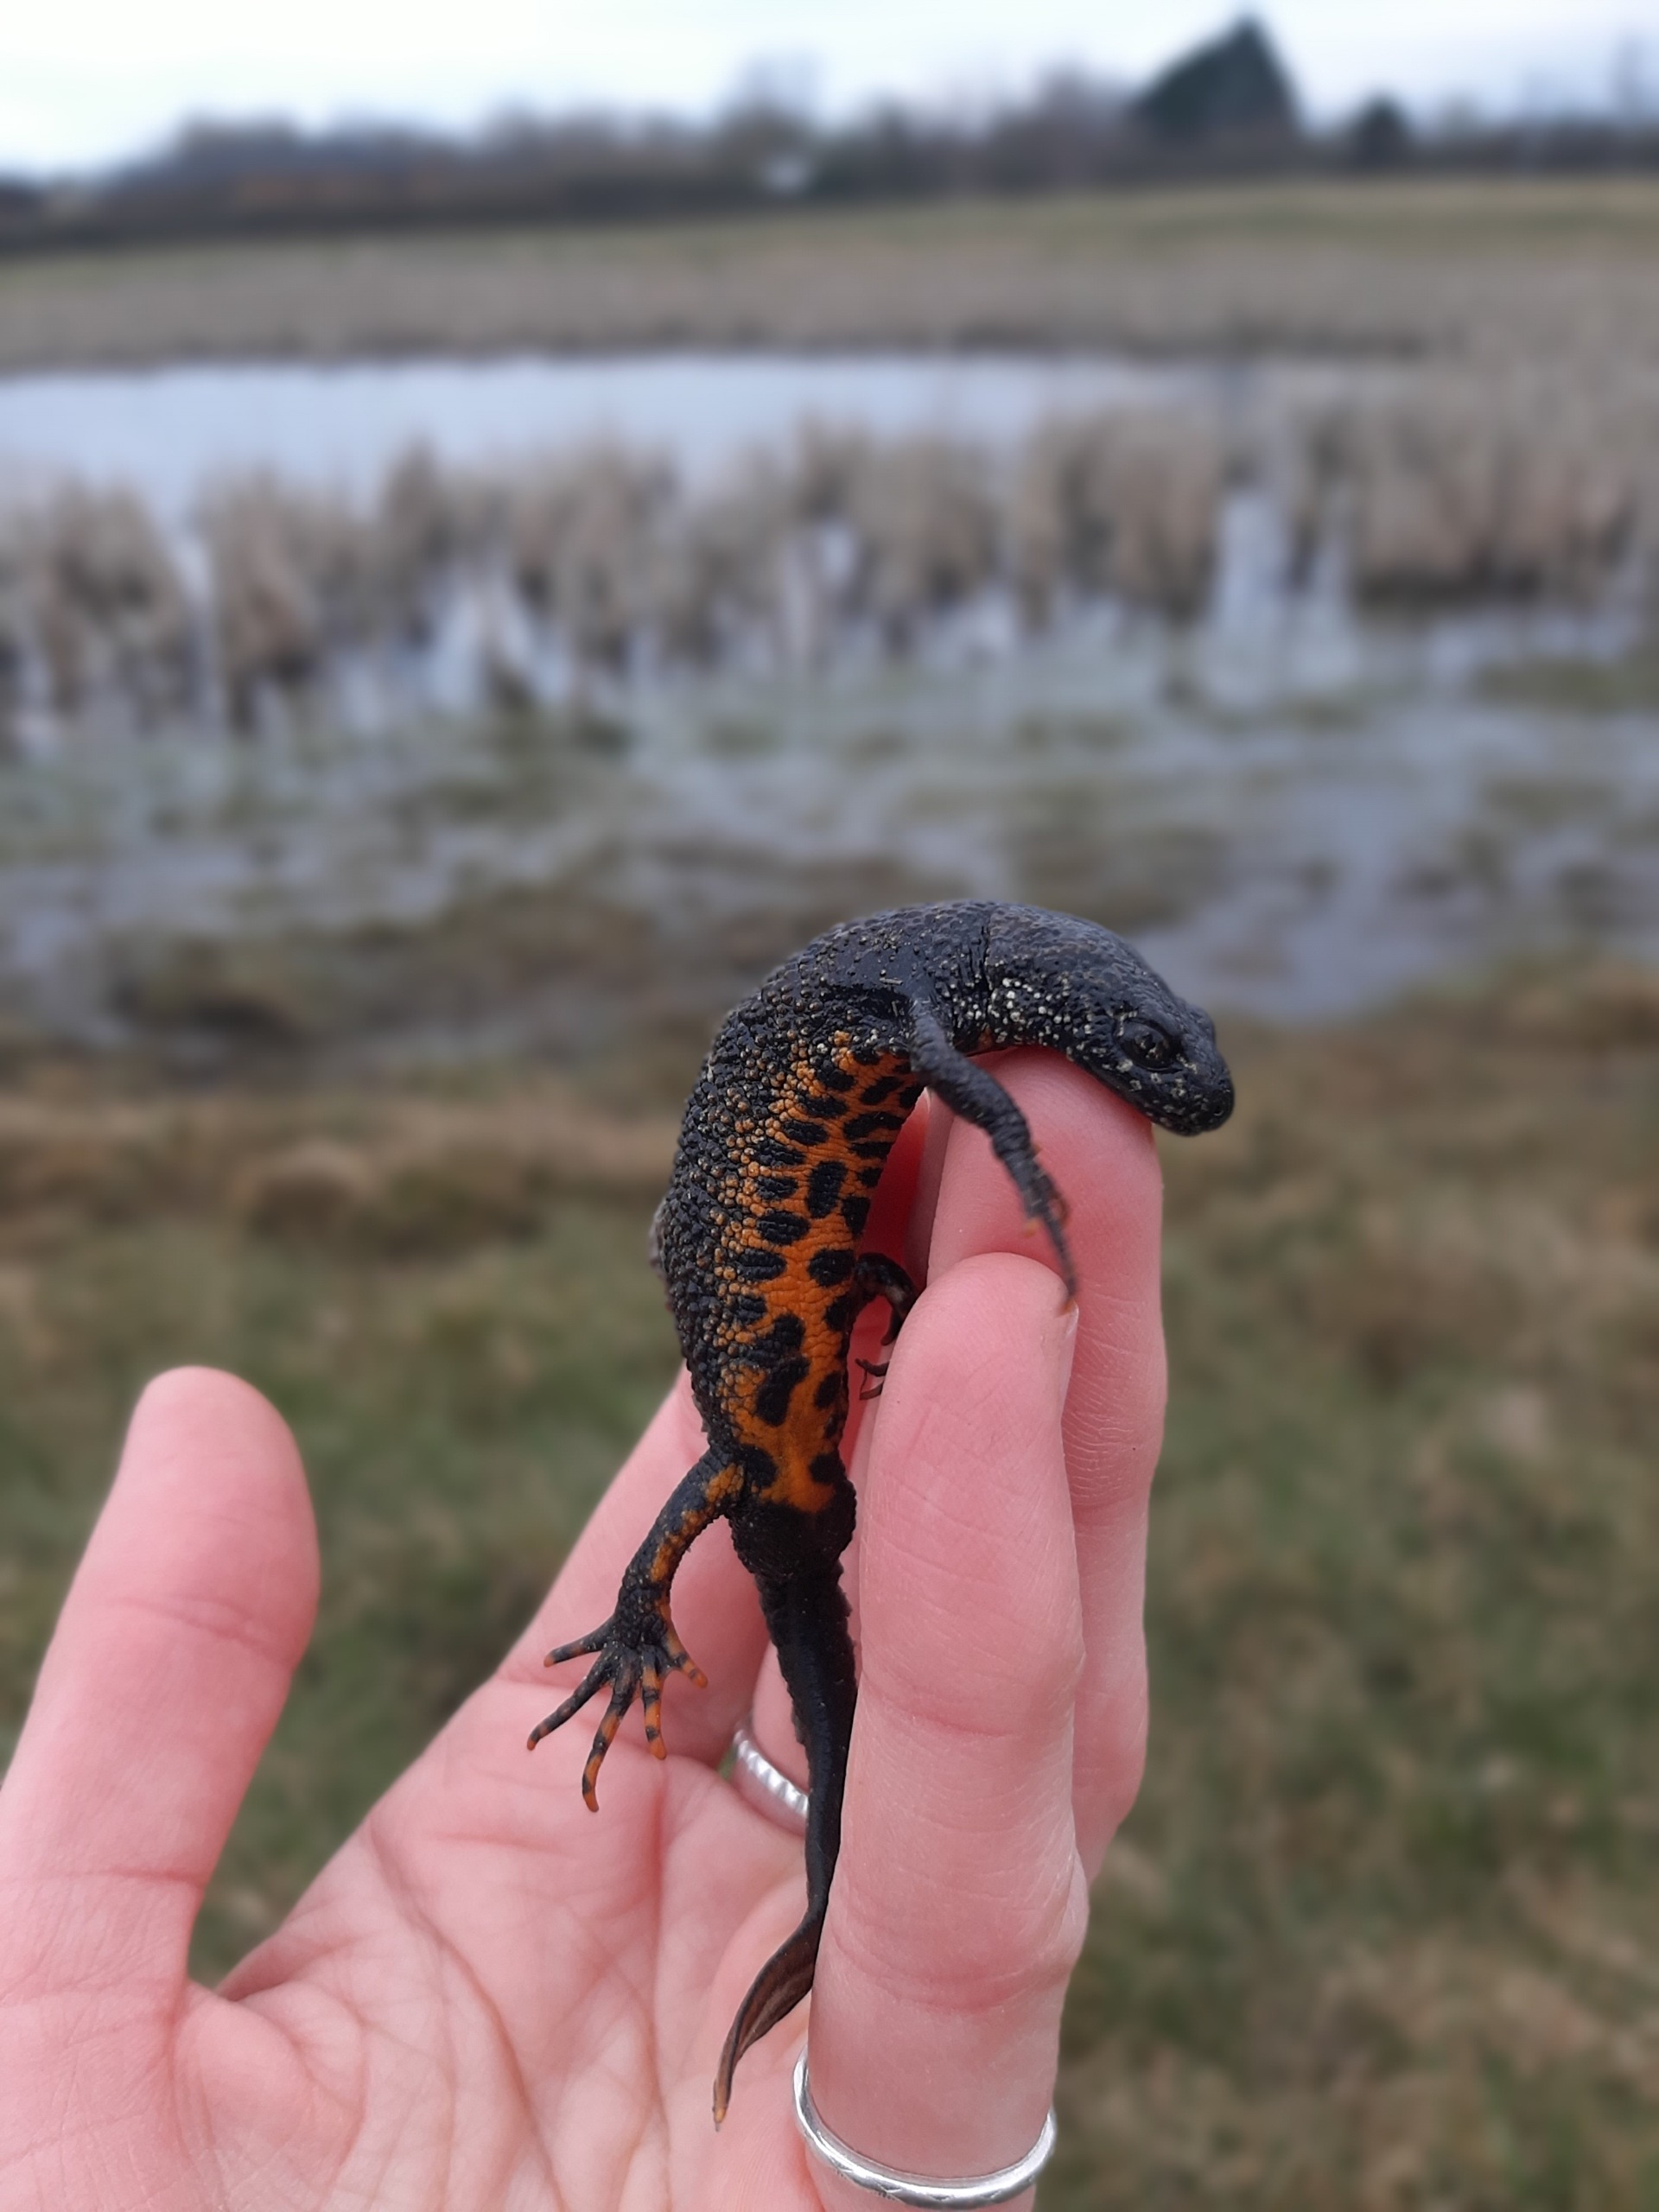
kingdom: Animalia
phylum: Chordata
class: Amphibia
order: Caudata
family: Salamandridae
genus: Triturus
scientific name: Triturus cristatus
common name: Stor vandsalamander
